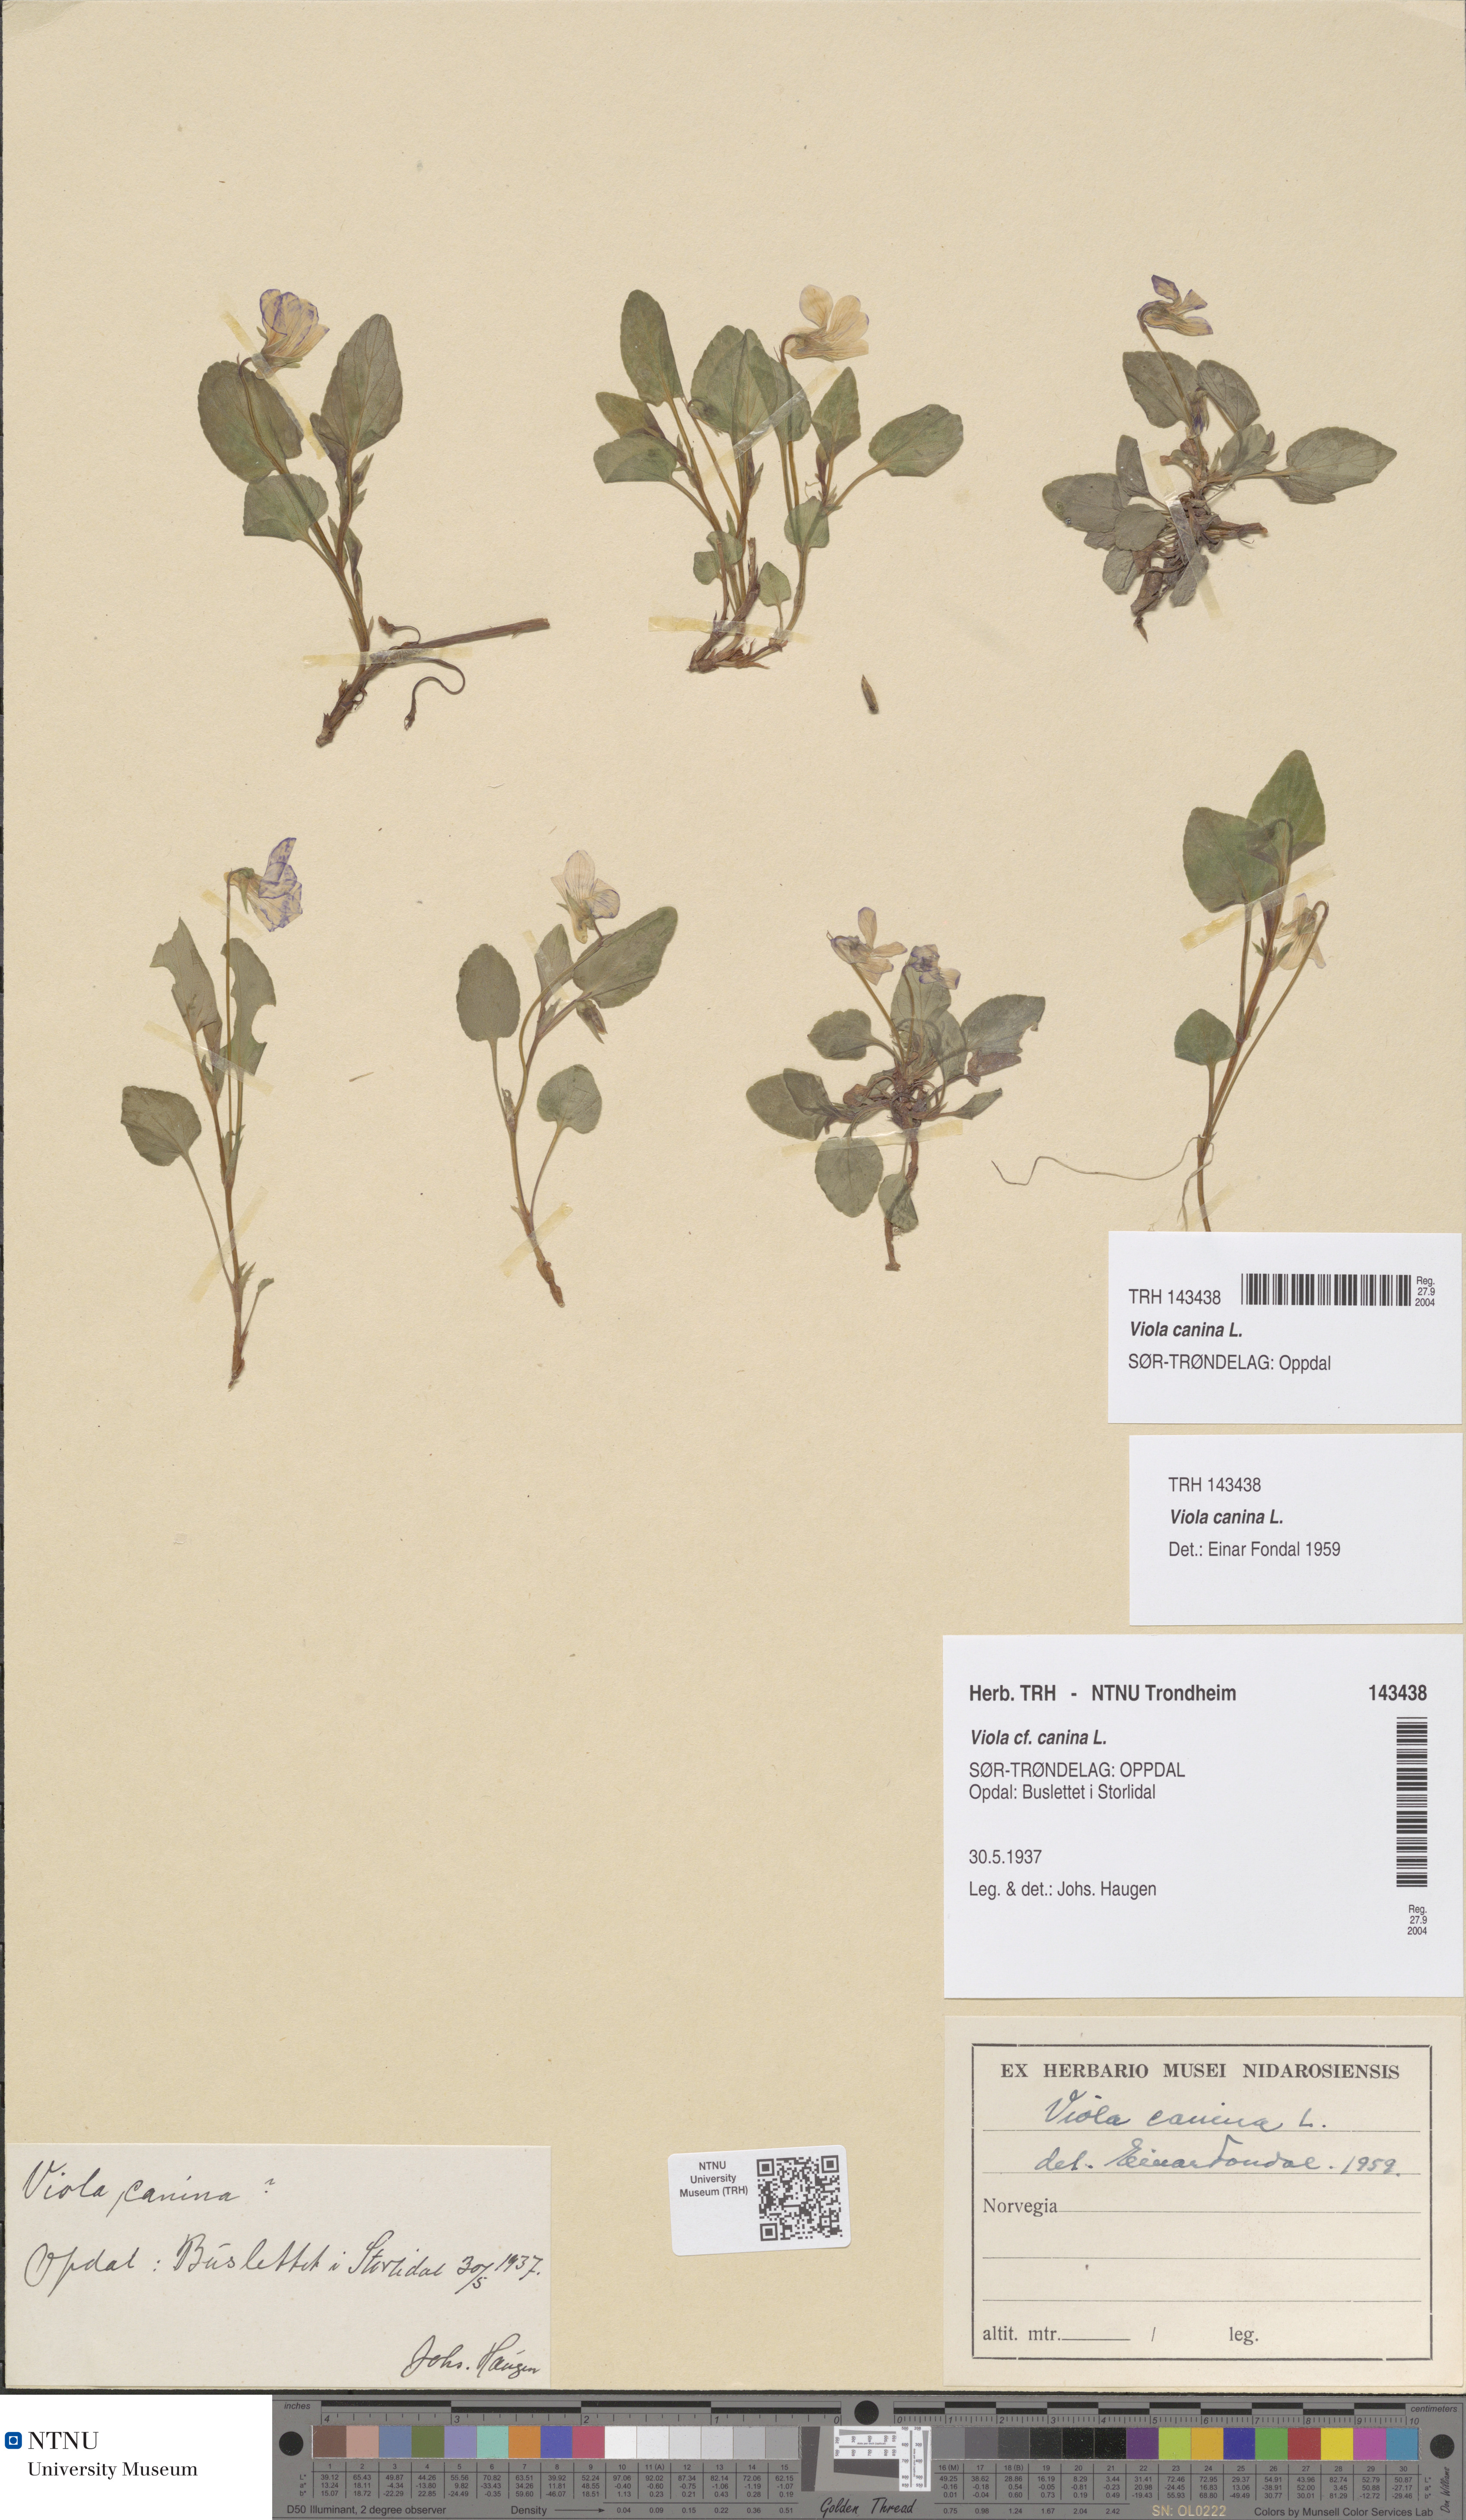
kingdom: Plantae
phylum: Tracheophyta
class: Magnoliopsida
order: Malpighiales
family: Violaceae
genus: Viola
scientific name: Viola canina
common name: Heath dog-violet
